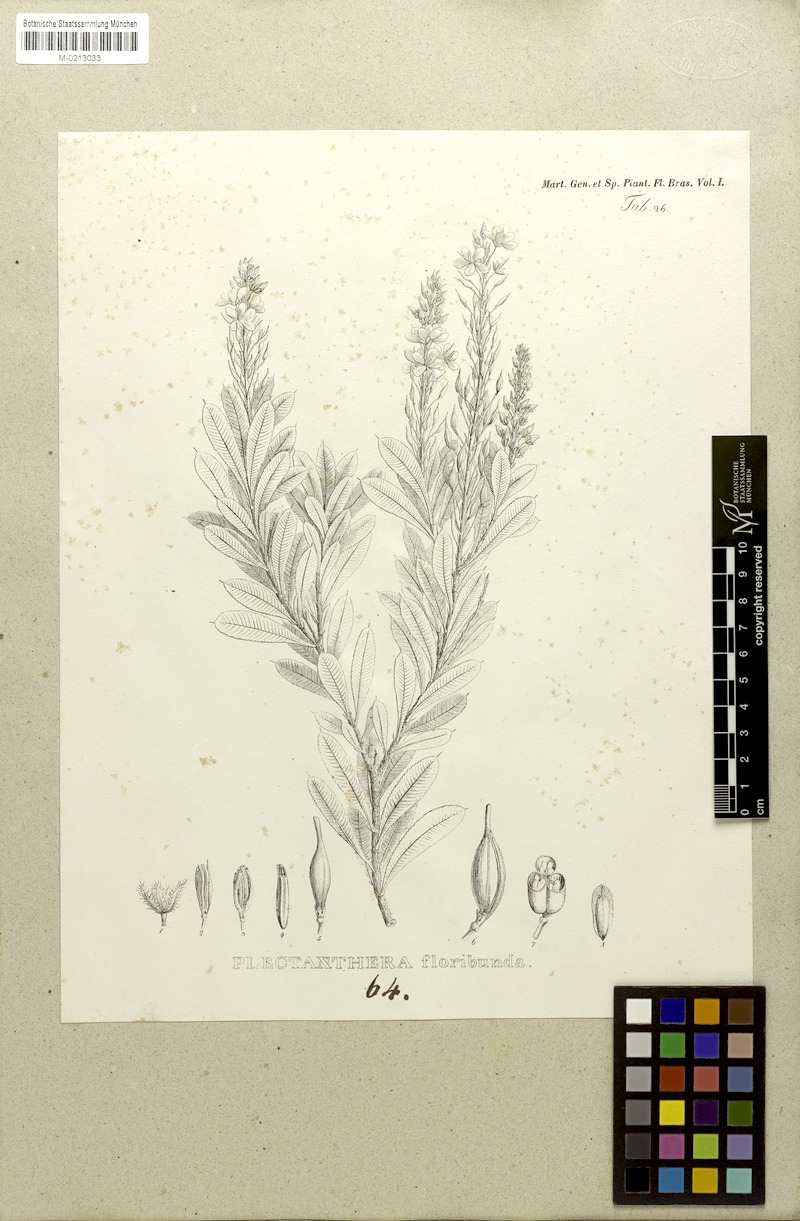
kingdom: Plantae
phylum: Tracheophyta
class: Magnoliopsida
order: Malpighiales
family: Ochnaceae
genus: Luxemburgia
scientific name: Luxemburgia octandra
